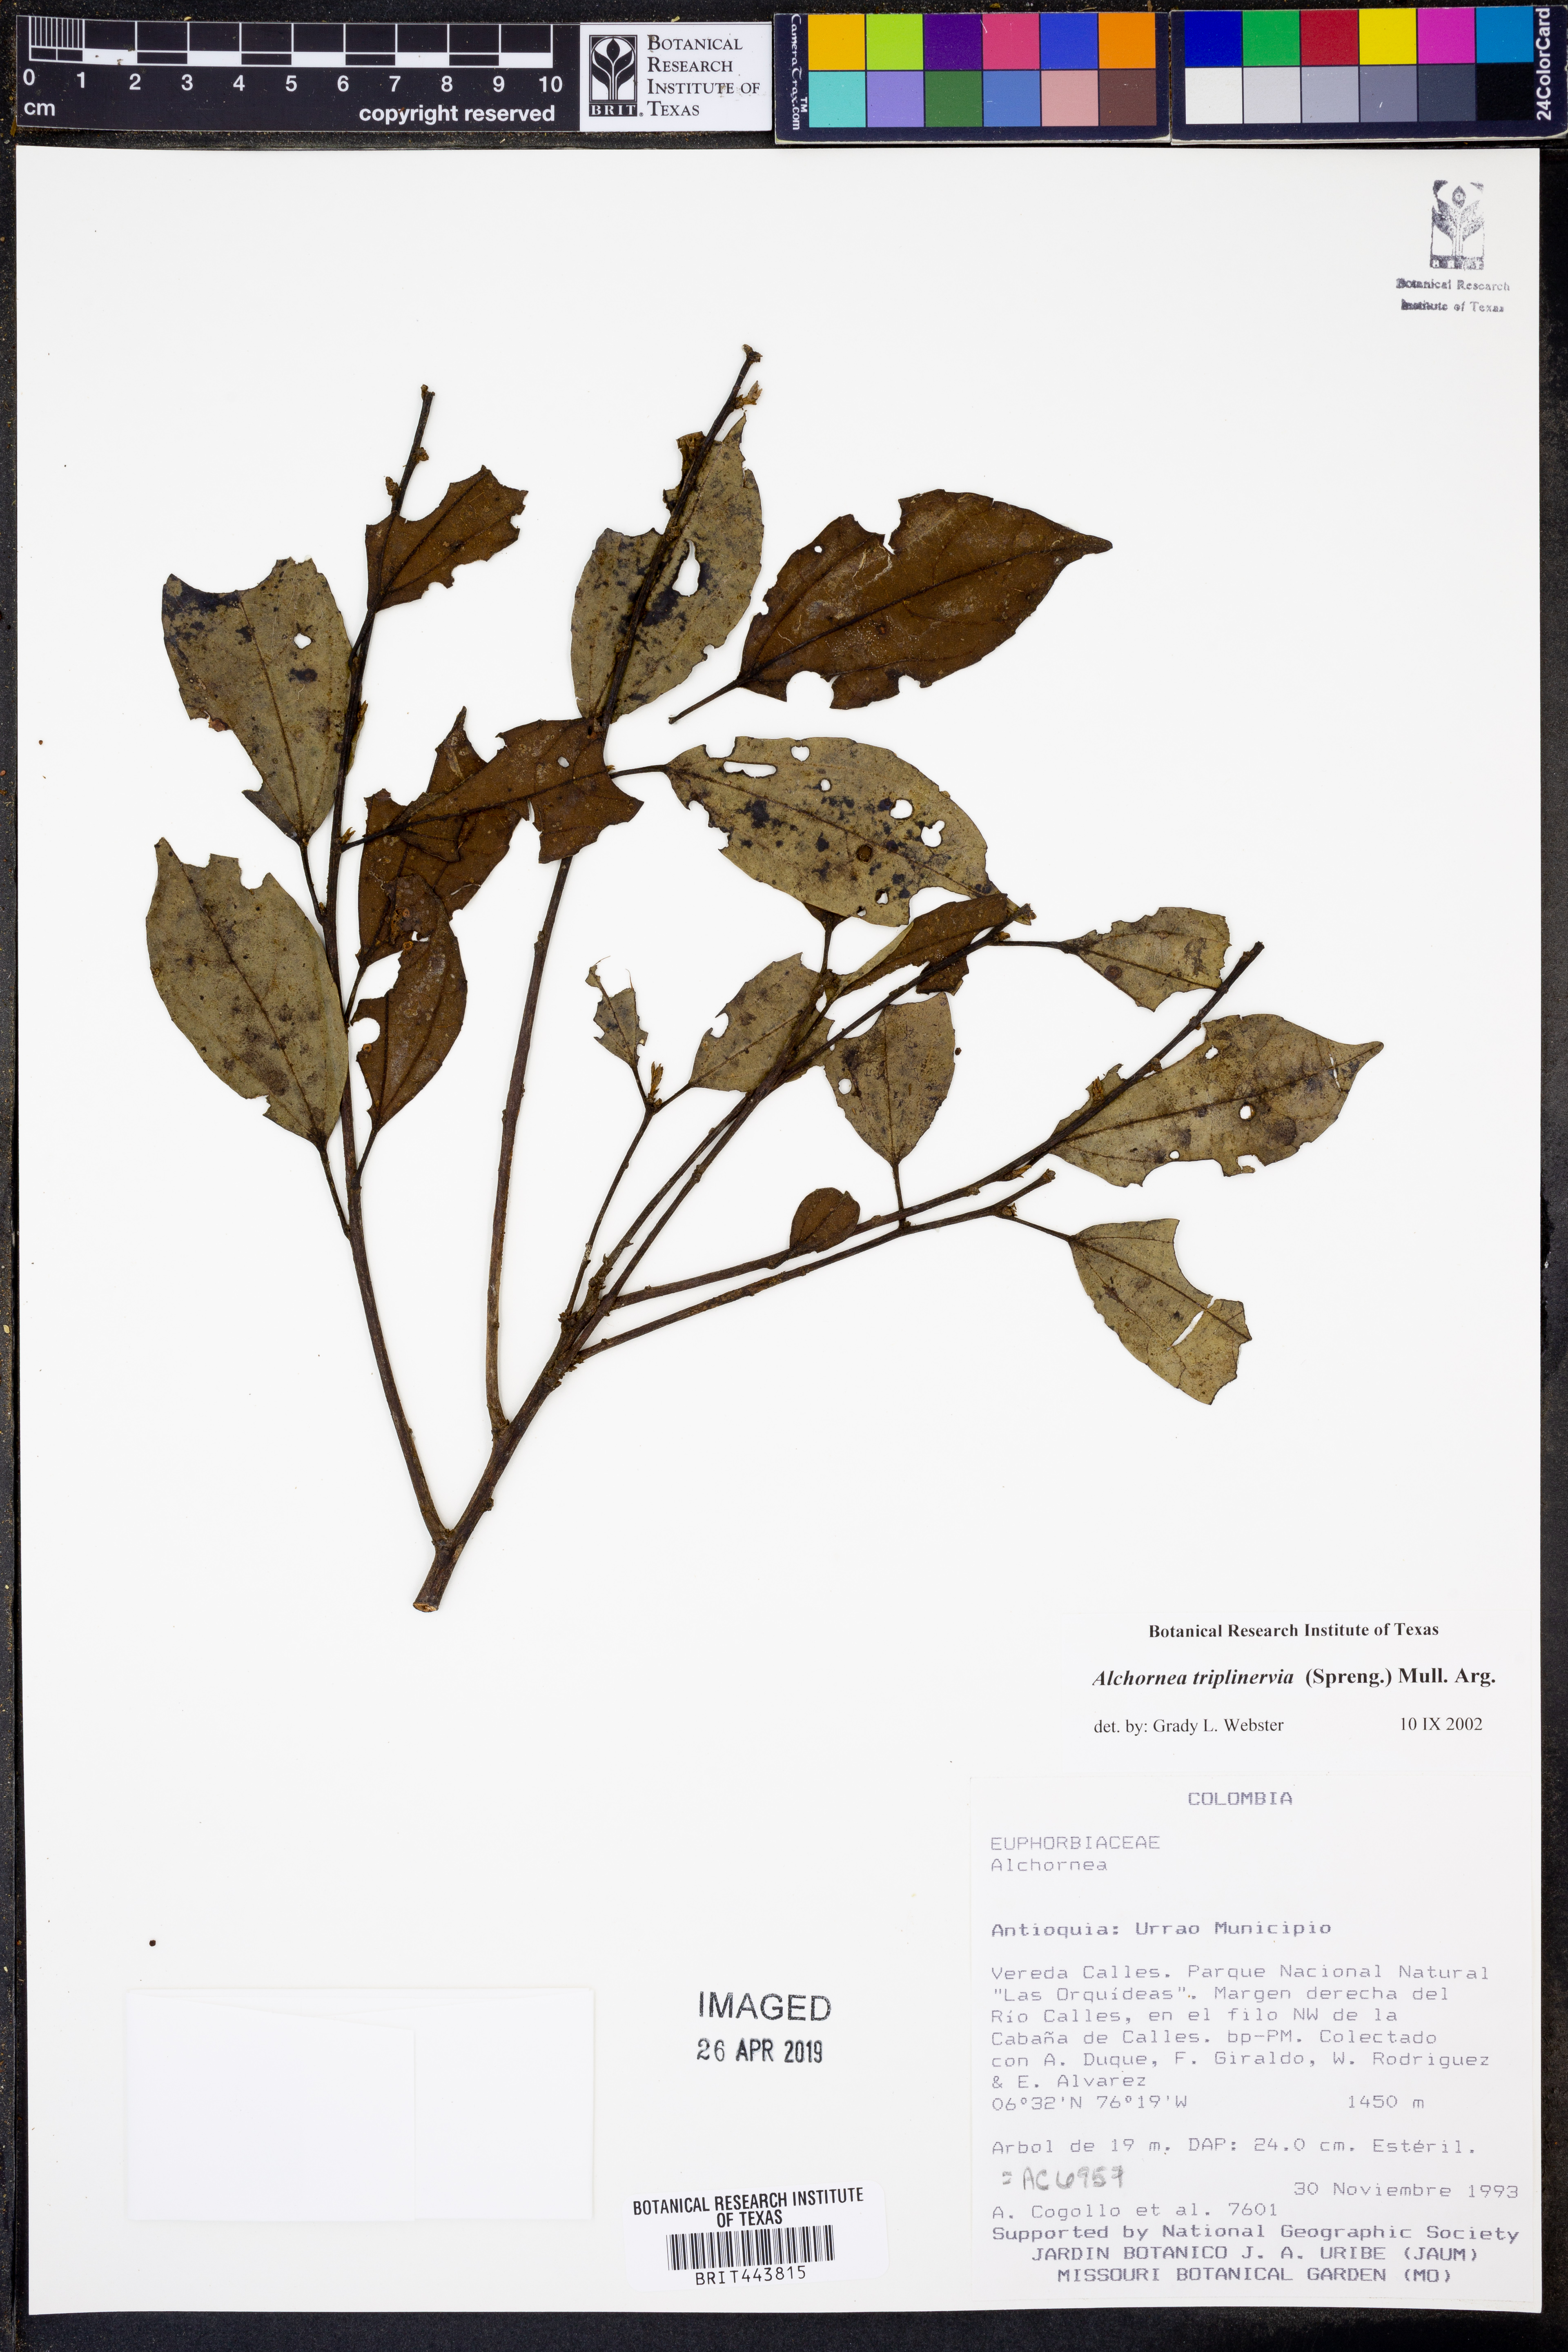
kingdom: Plantae
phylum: Tracheophyta
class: Magnoliopsida
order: Malpighiales
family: Euphorbiaceae
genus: Alchornea
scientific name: Alchornea triplinervia
